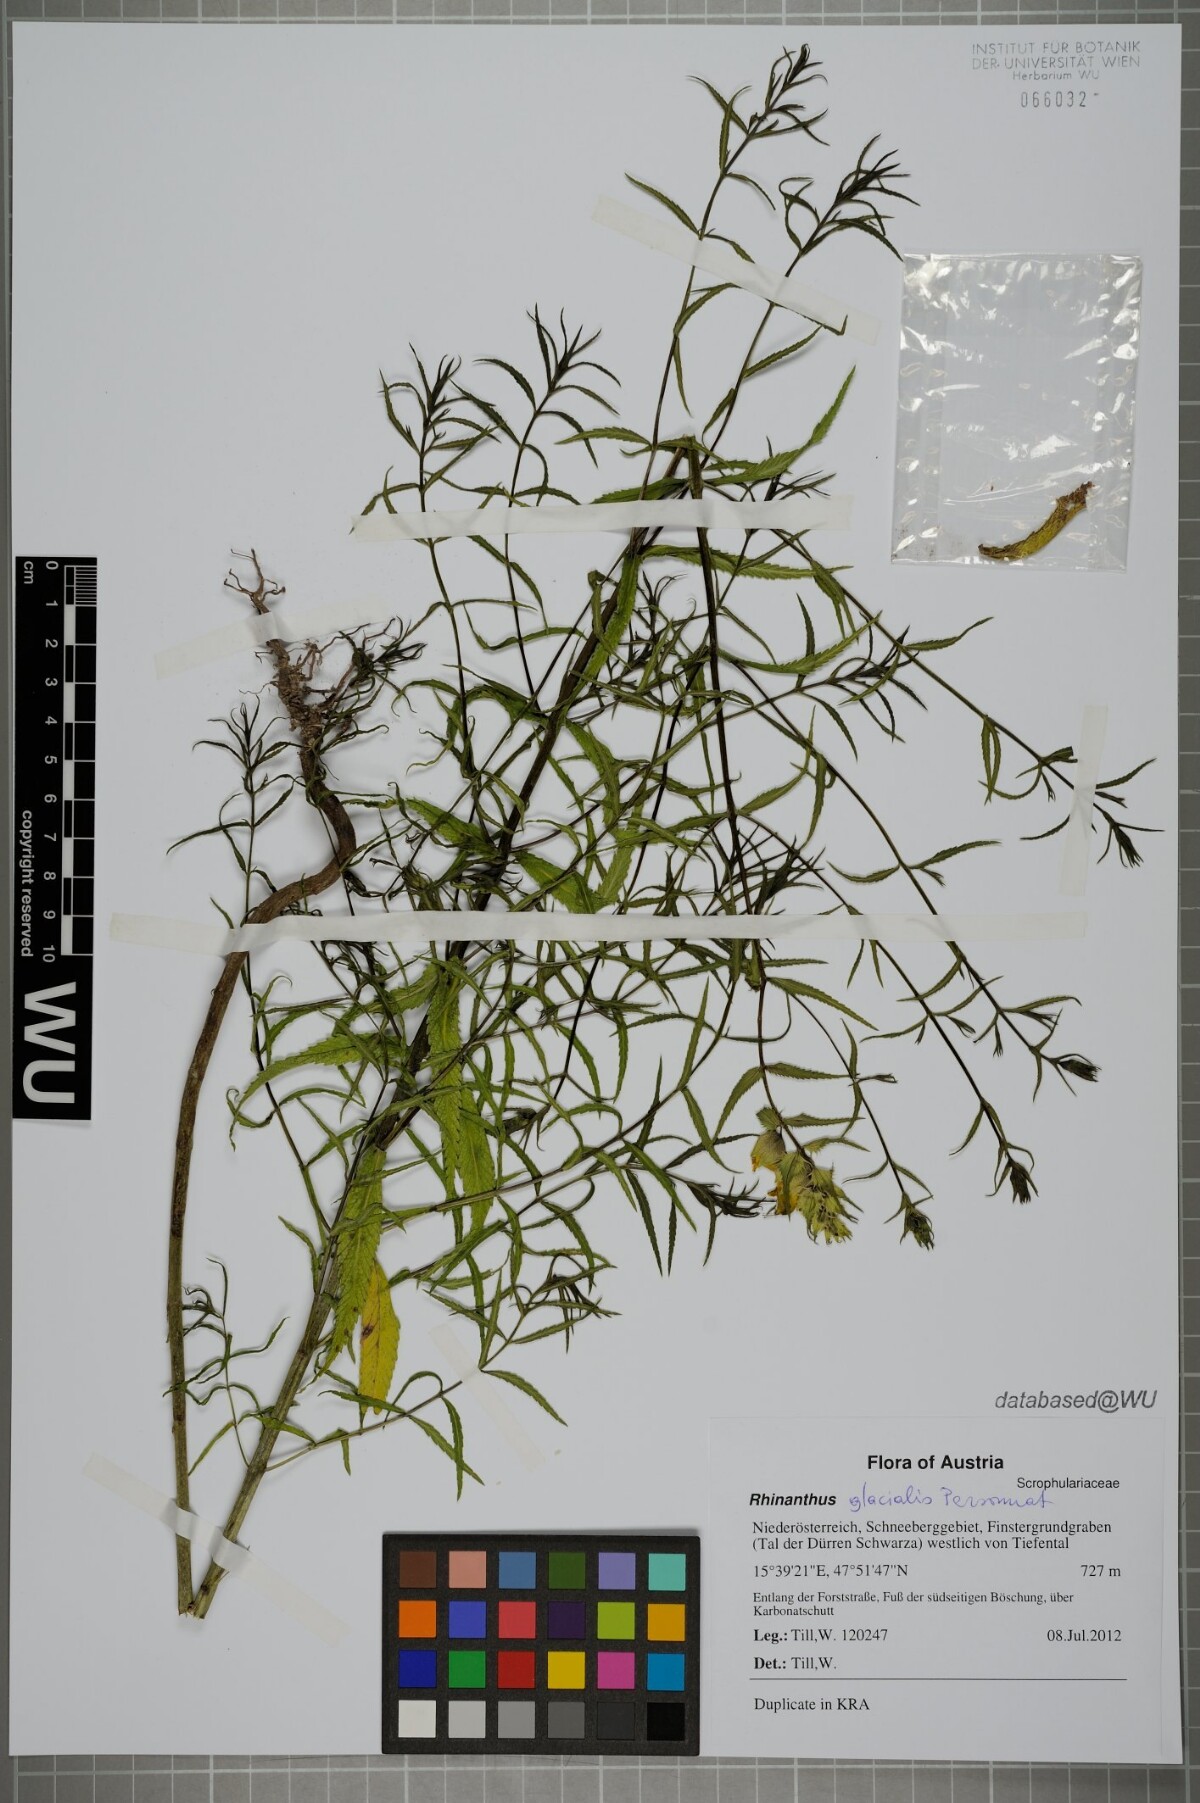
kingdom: Plantae
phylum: Tracheophyta
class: Magnoliopsida
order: Lamiales
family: Orobanchaceae
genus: Rhinanthus
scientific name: Rhinanthus glacialis
